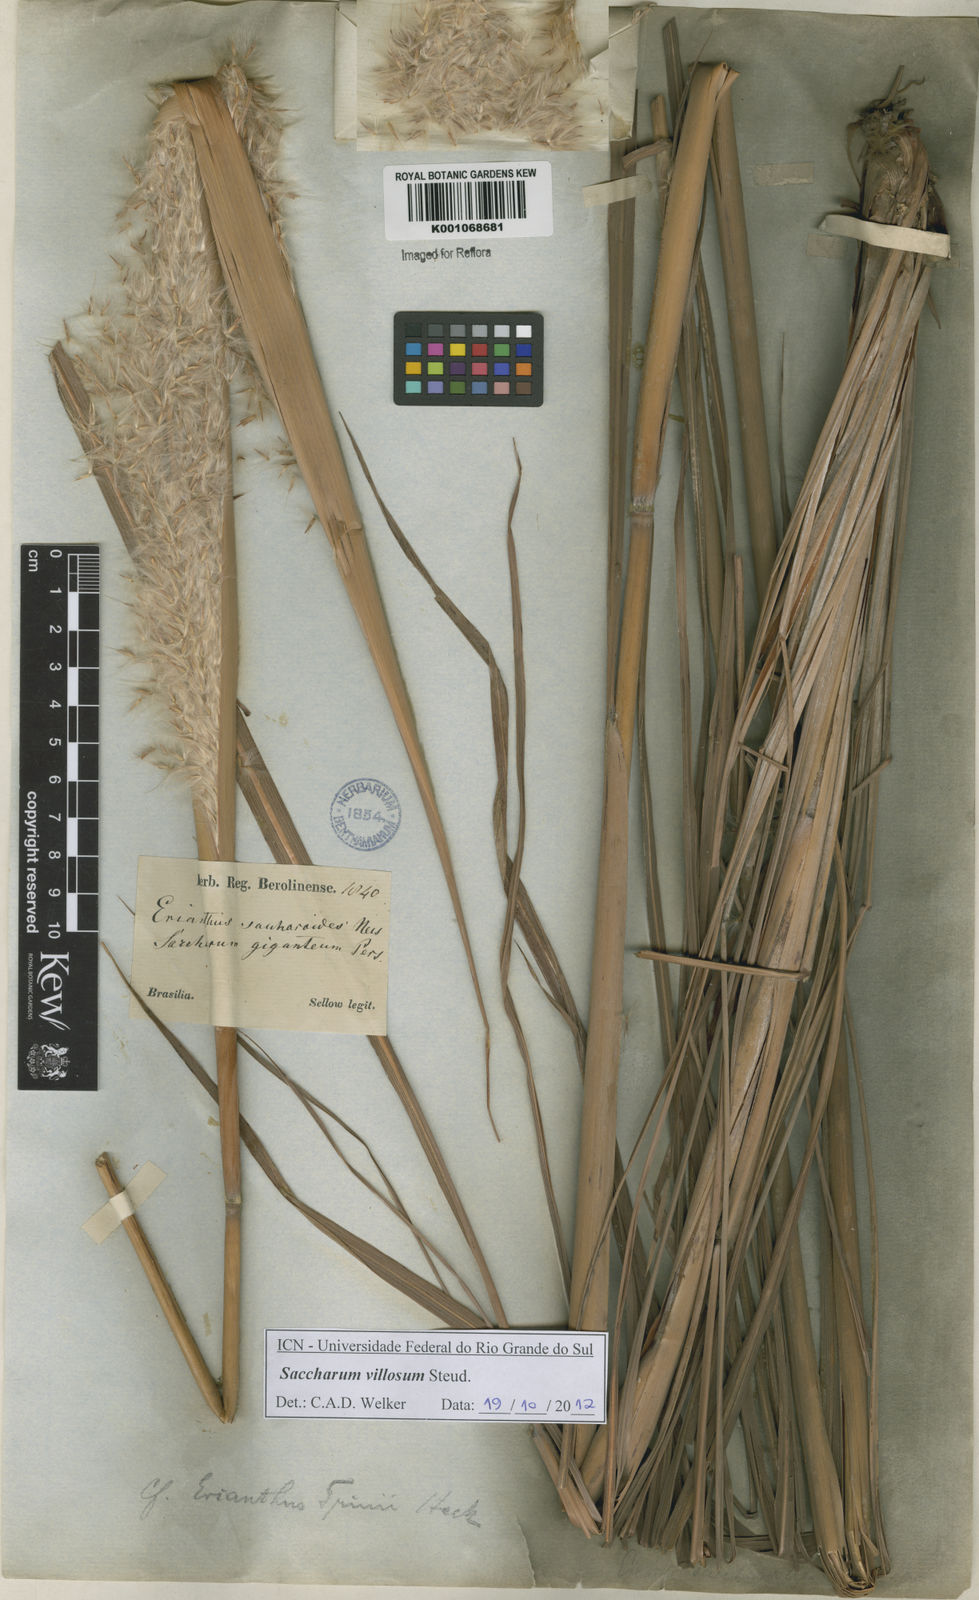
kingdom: Plantae
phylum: Tracheophyta
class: Liliopsida
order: Poales
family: Poaceae
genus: Erianthus
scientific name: Erianthus trinii
